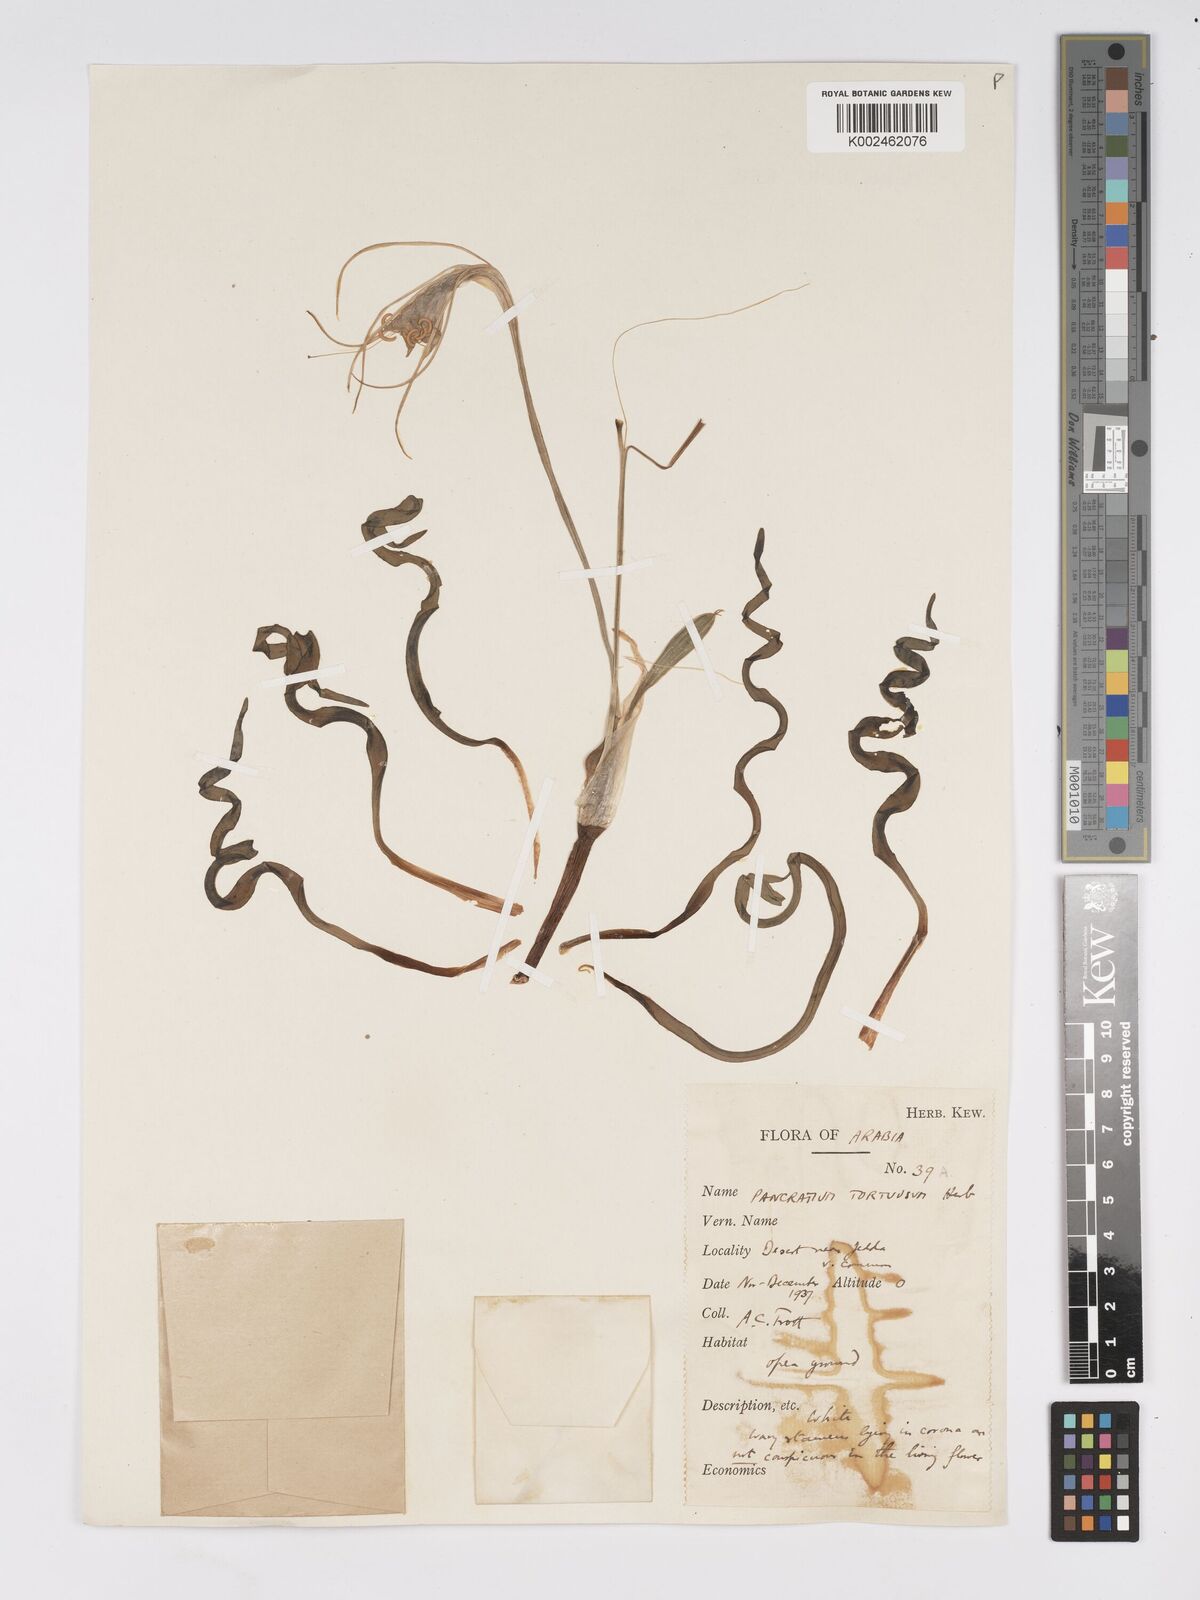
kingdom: Plantae
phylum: Tracheophyta
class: Liliopsida
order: Asparagales
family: Amaryllidaceae
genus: Pancratium
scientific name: Pancratium tortuosum
